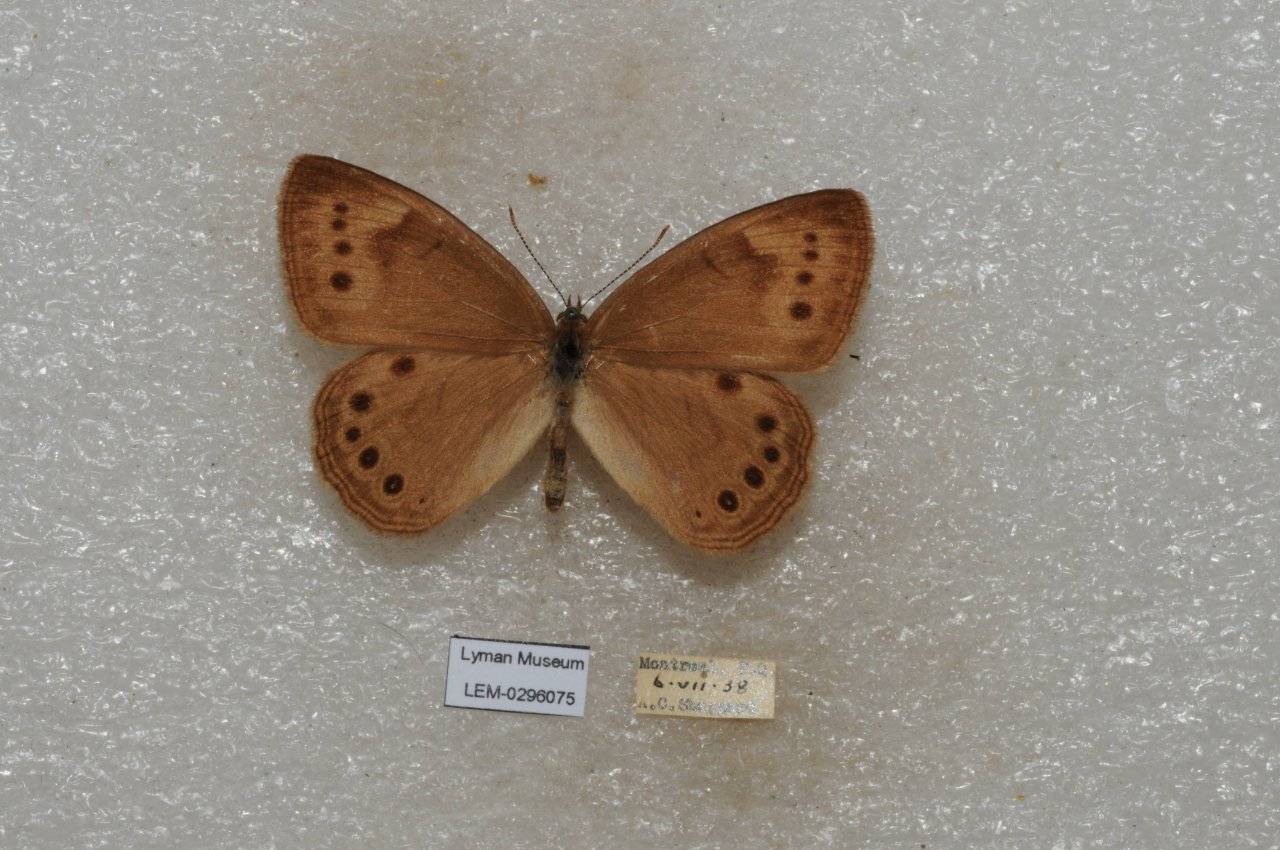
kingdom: Animalia
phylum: Arthropoda
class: Insecta
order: Lepidoptera
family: Nymphalidae
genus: Lethe
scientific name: Lethe eurydice
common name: Eyed Brown
